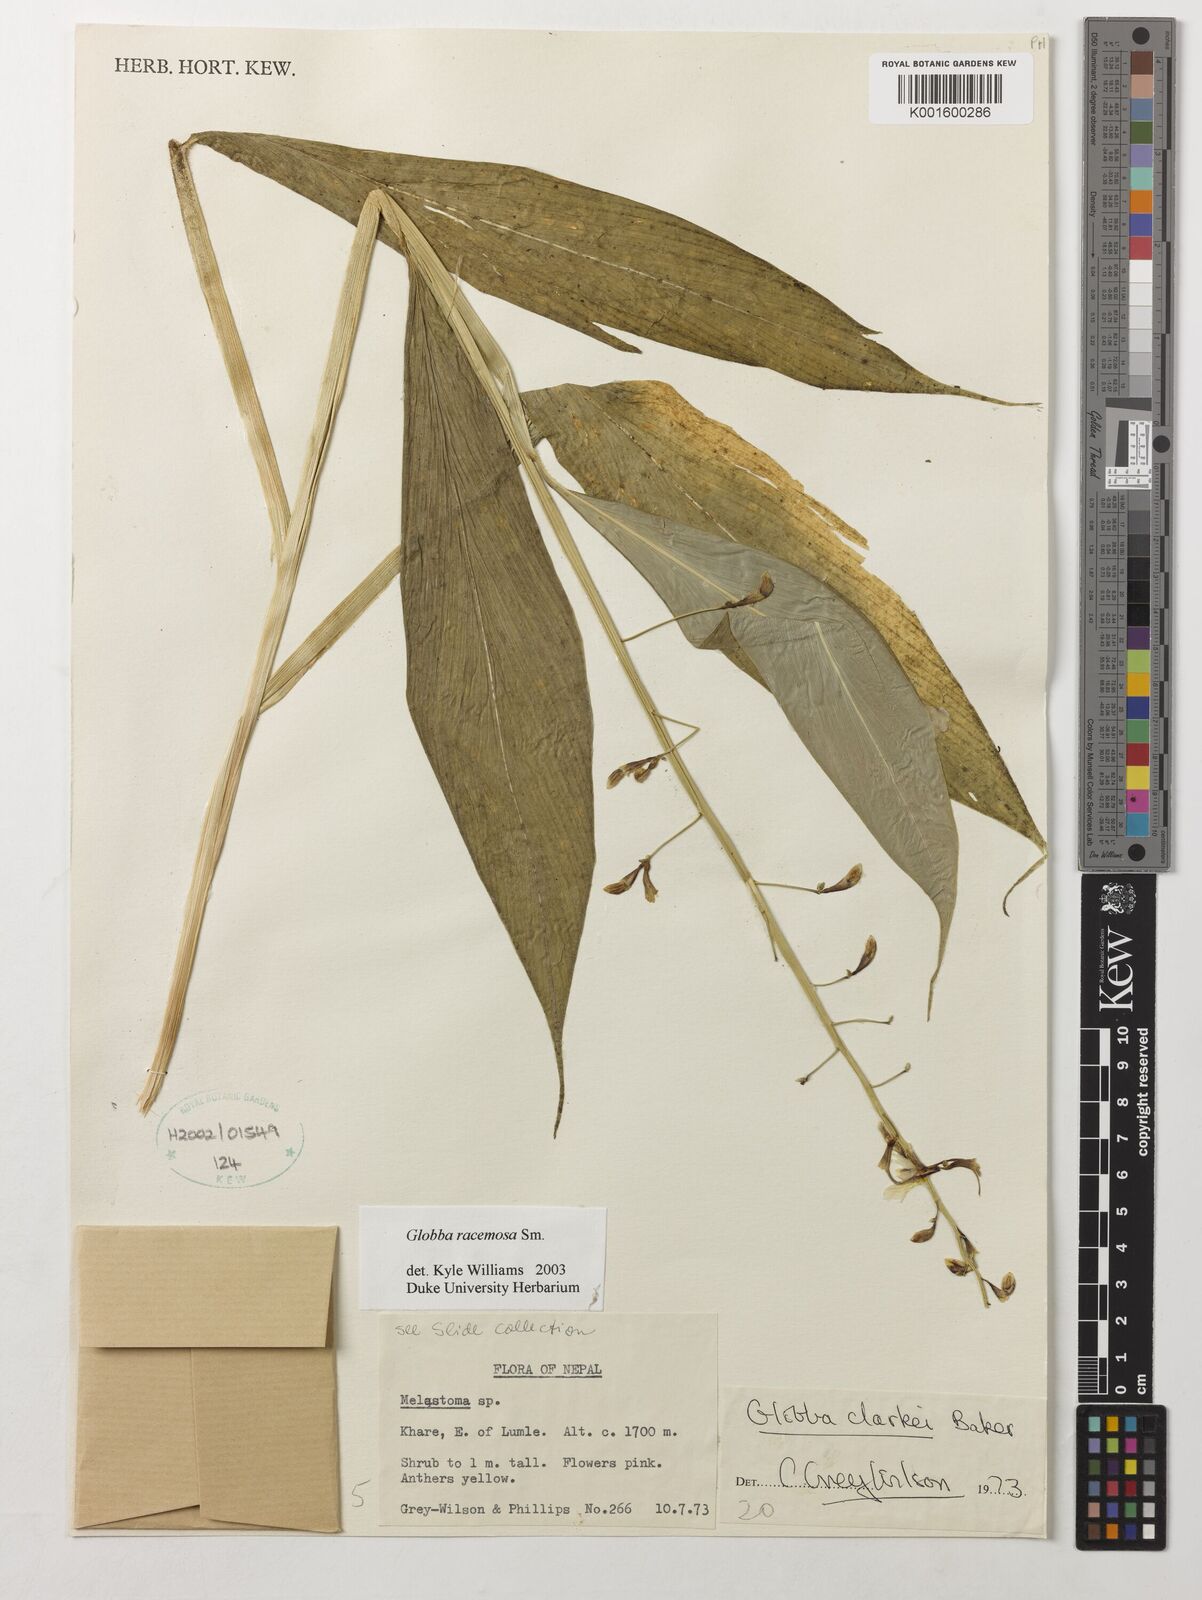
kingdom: Plantae
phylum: Tracheophyta
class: Liliopsida
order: Zingiberales
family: Zingiberaceae
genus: Globba
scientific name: Globba racemosa
